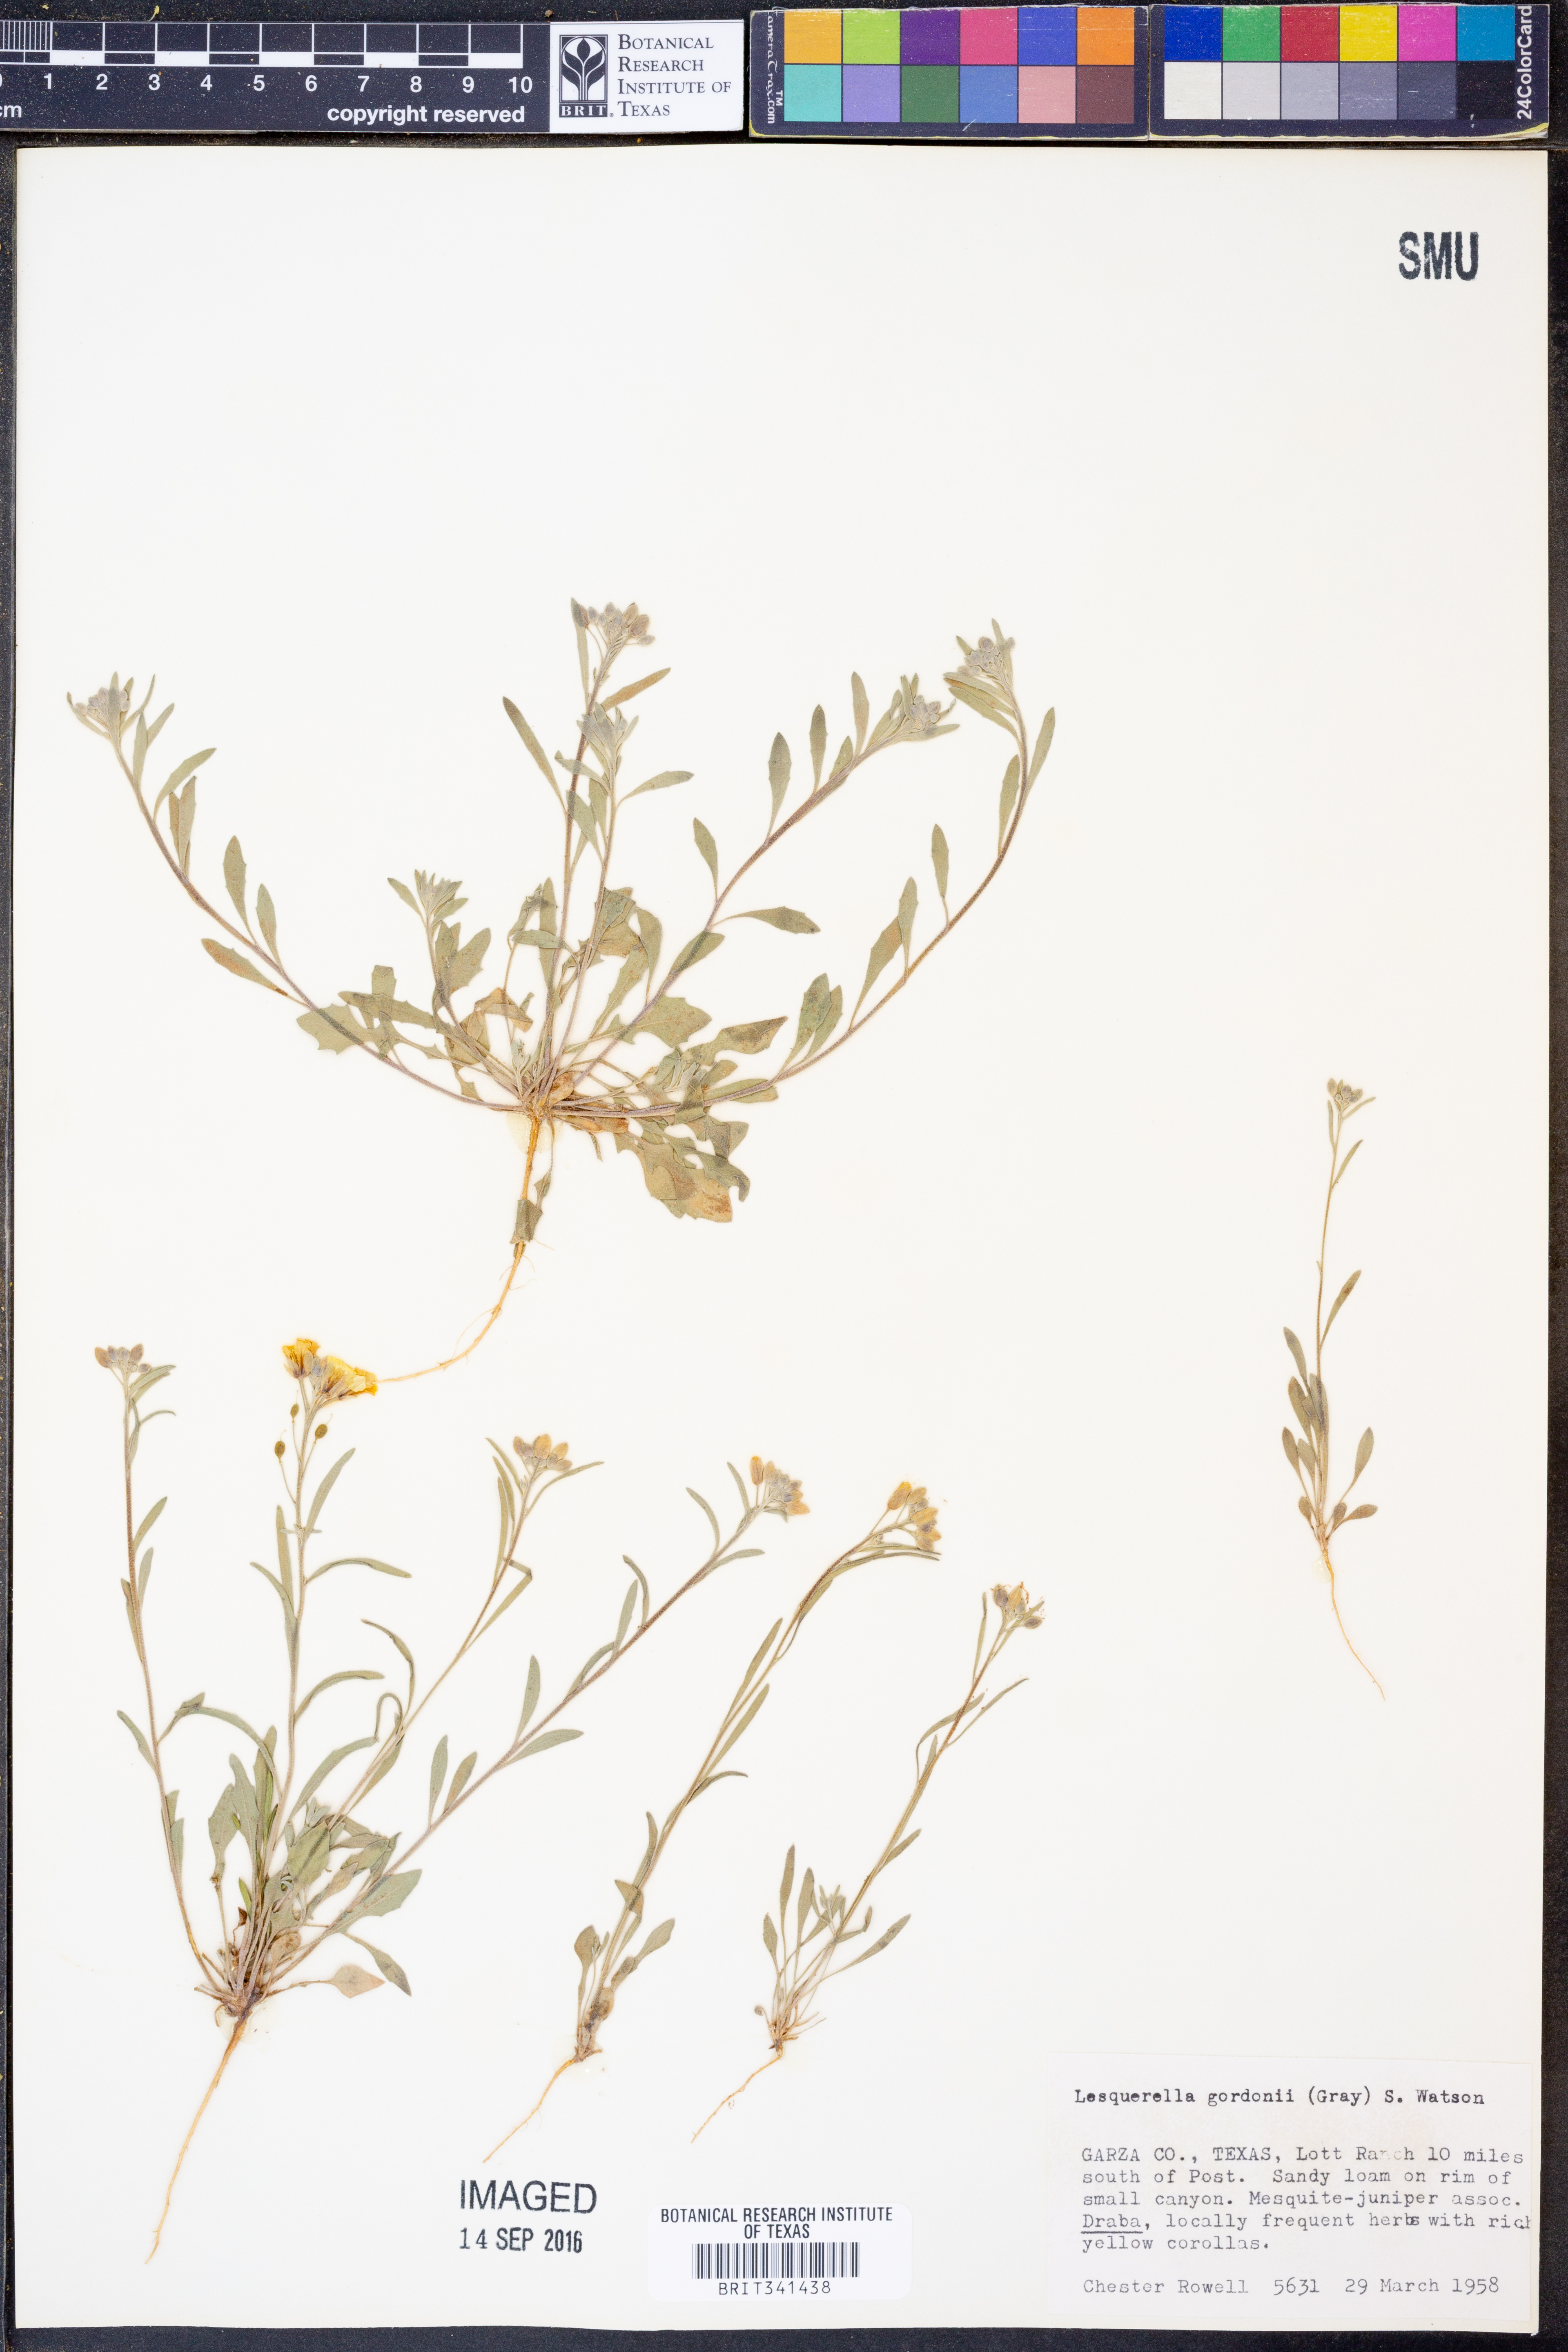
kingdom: Plantae
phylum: Tracheophyta
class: Magnoliopsida
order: Brassicales
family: Brassicaceae
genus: Physaria
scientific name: Physaria gordonii
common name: Gordon's bladderpod
